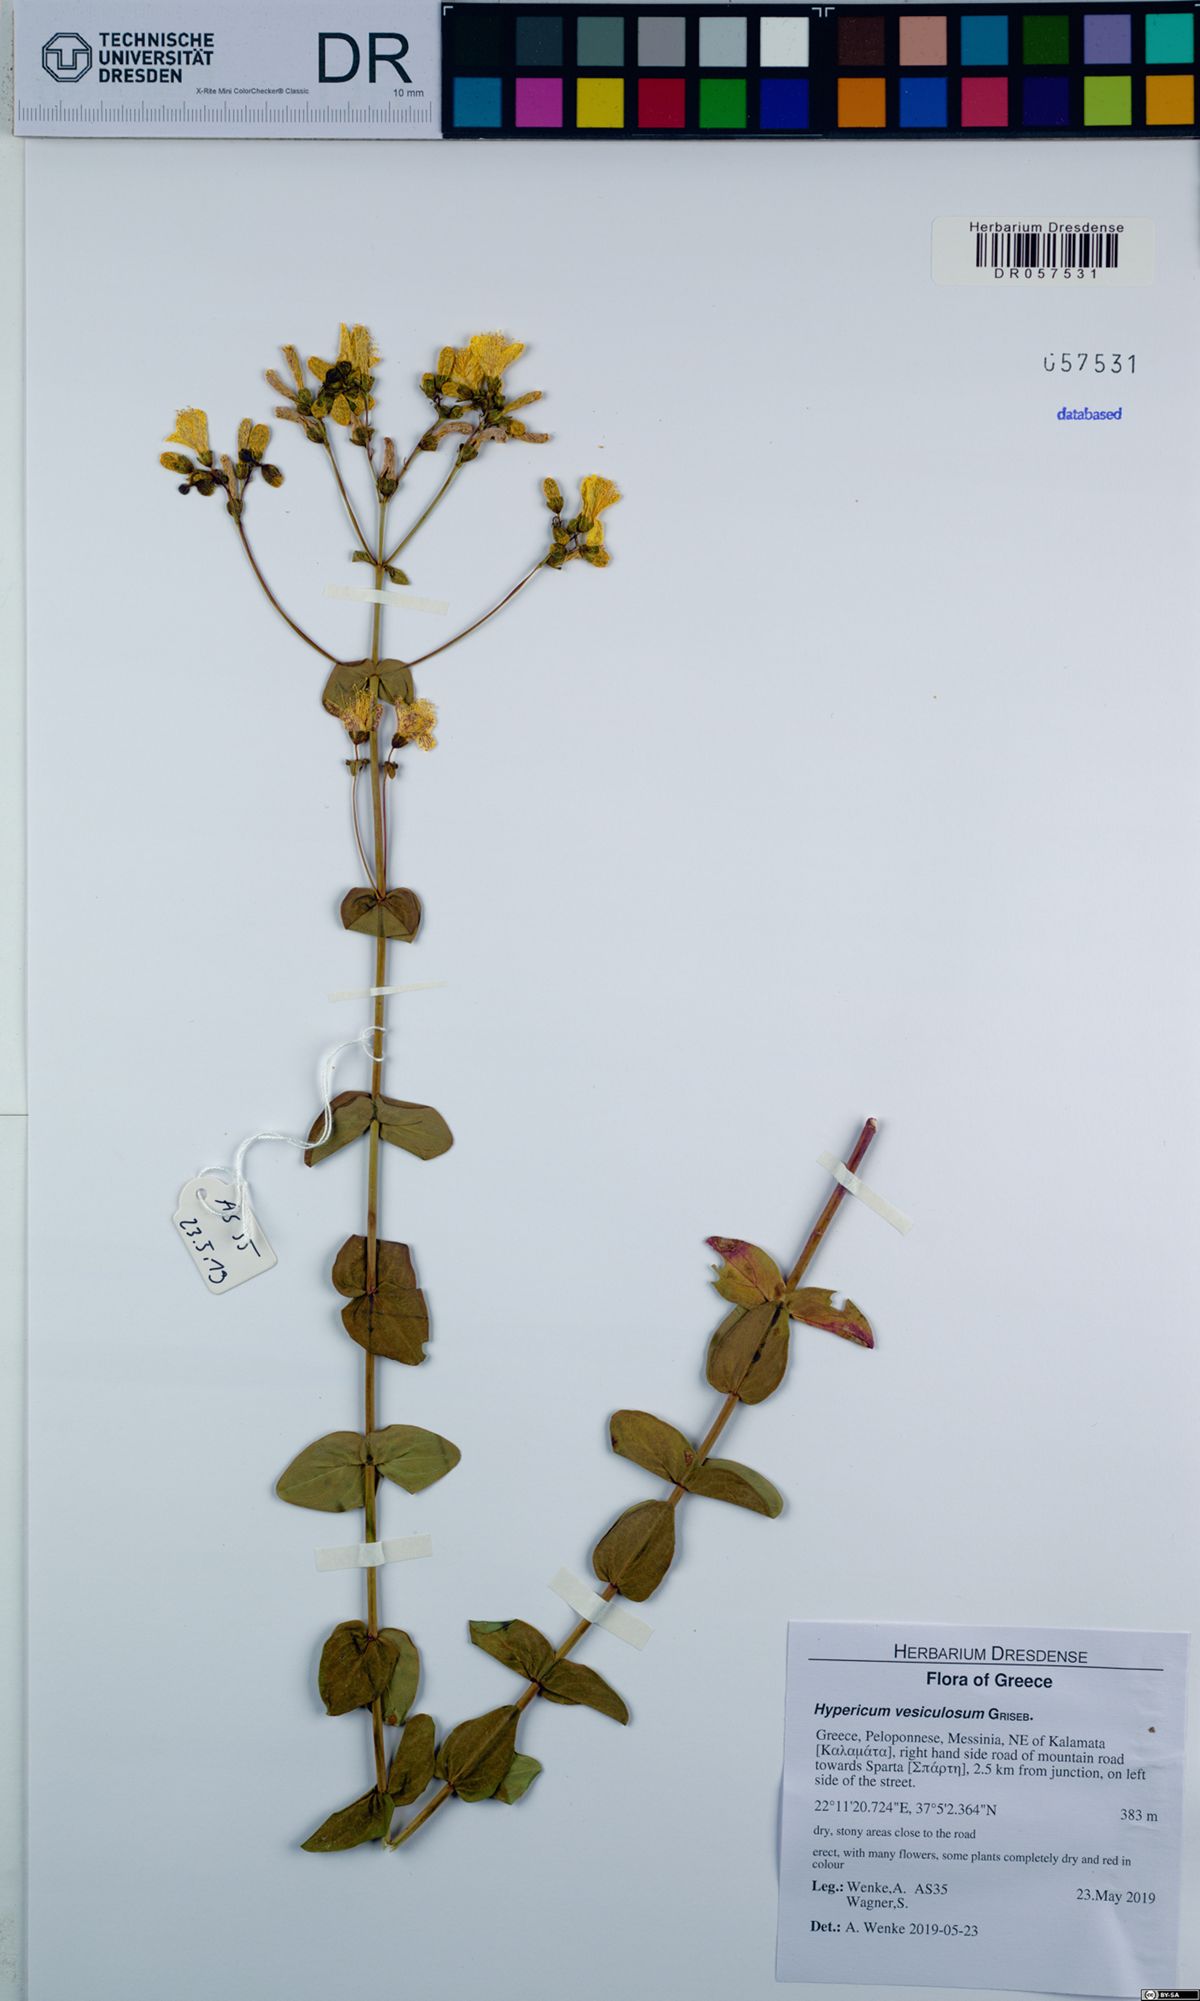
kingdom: Plantae
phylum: Tracheophyta
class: Magnoliopsida
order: Malpighiales
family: Hypericaceae
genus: Hypericum
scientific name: Hypericum vesiculosum
